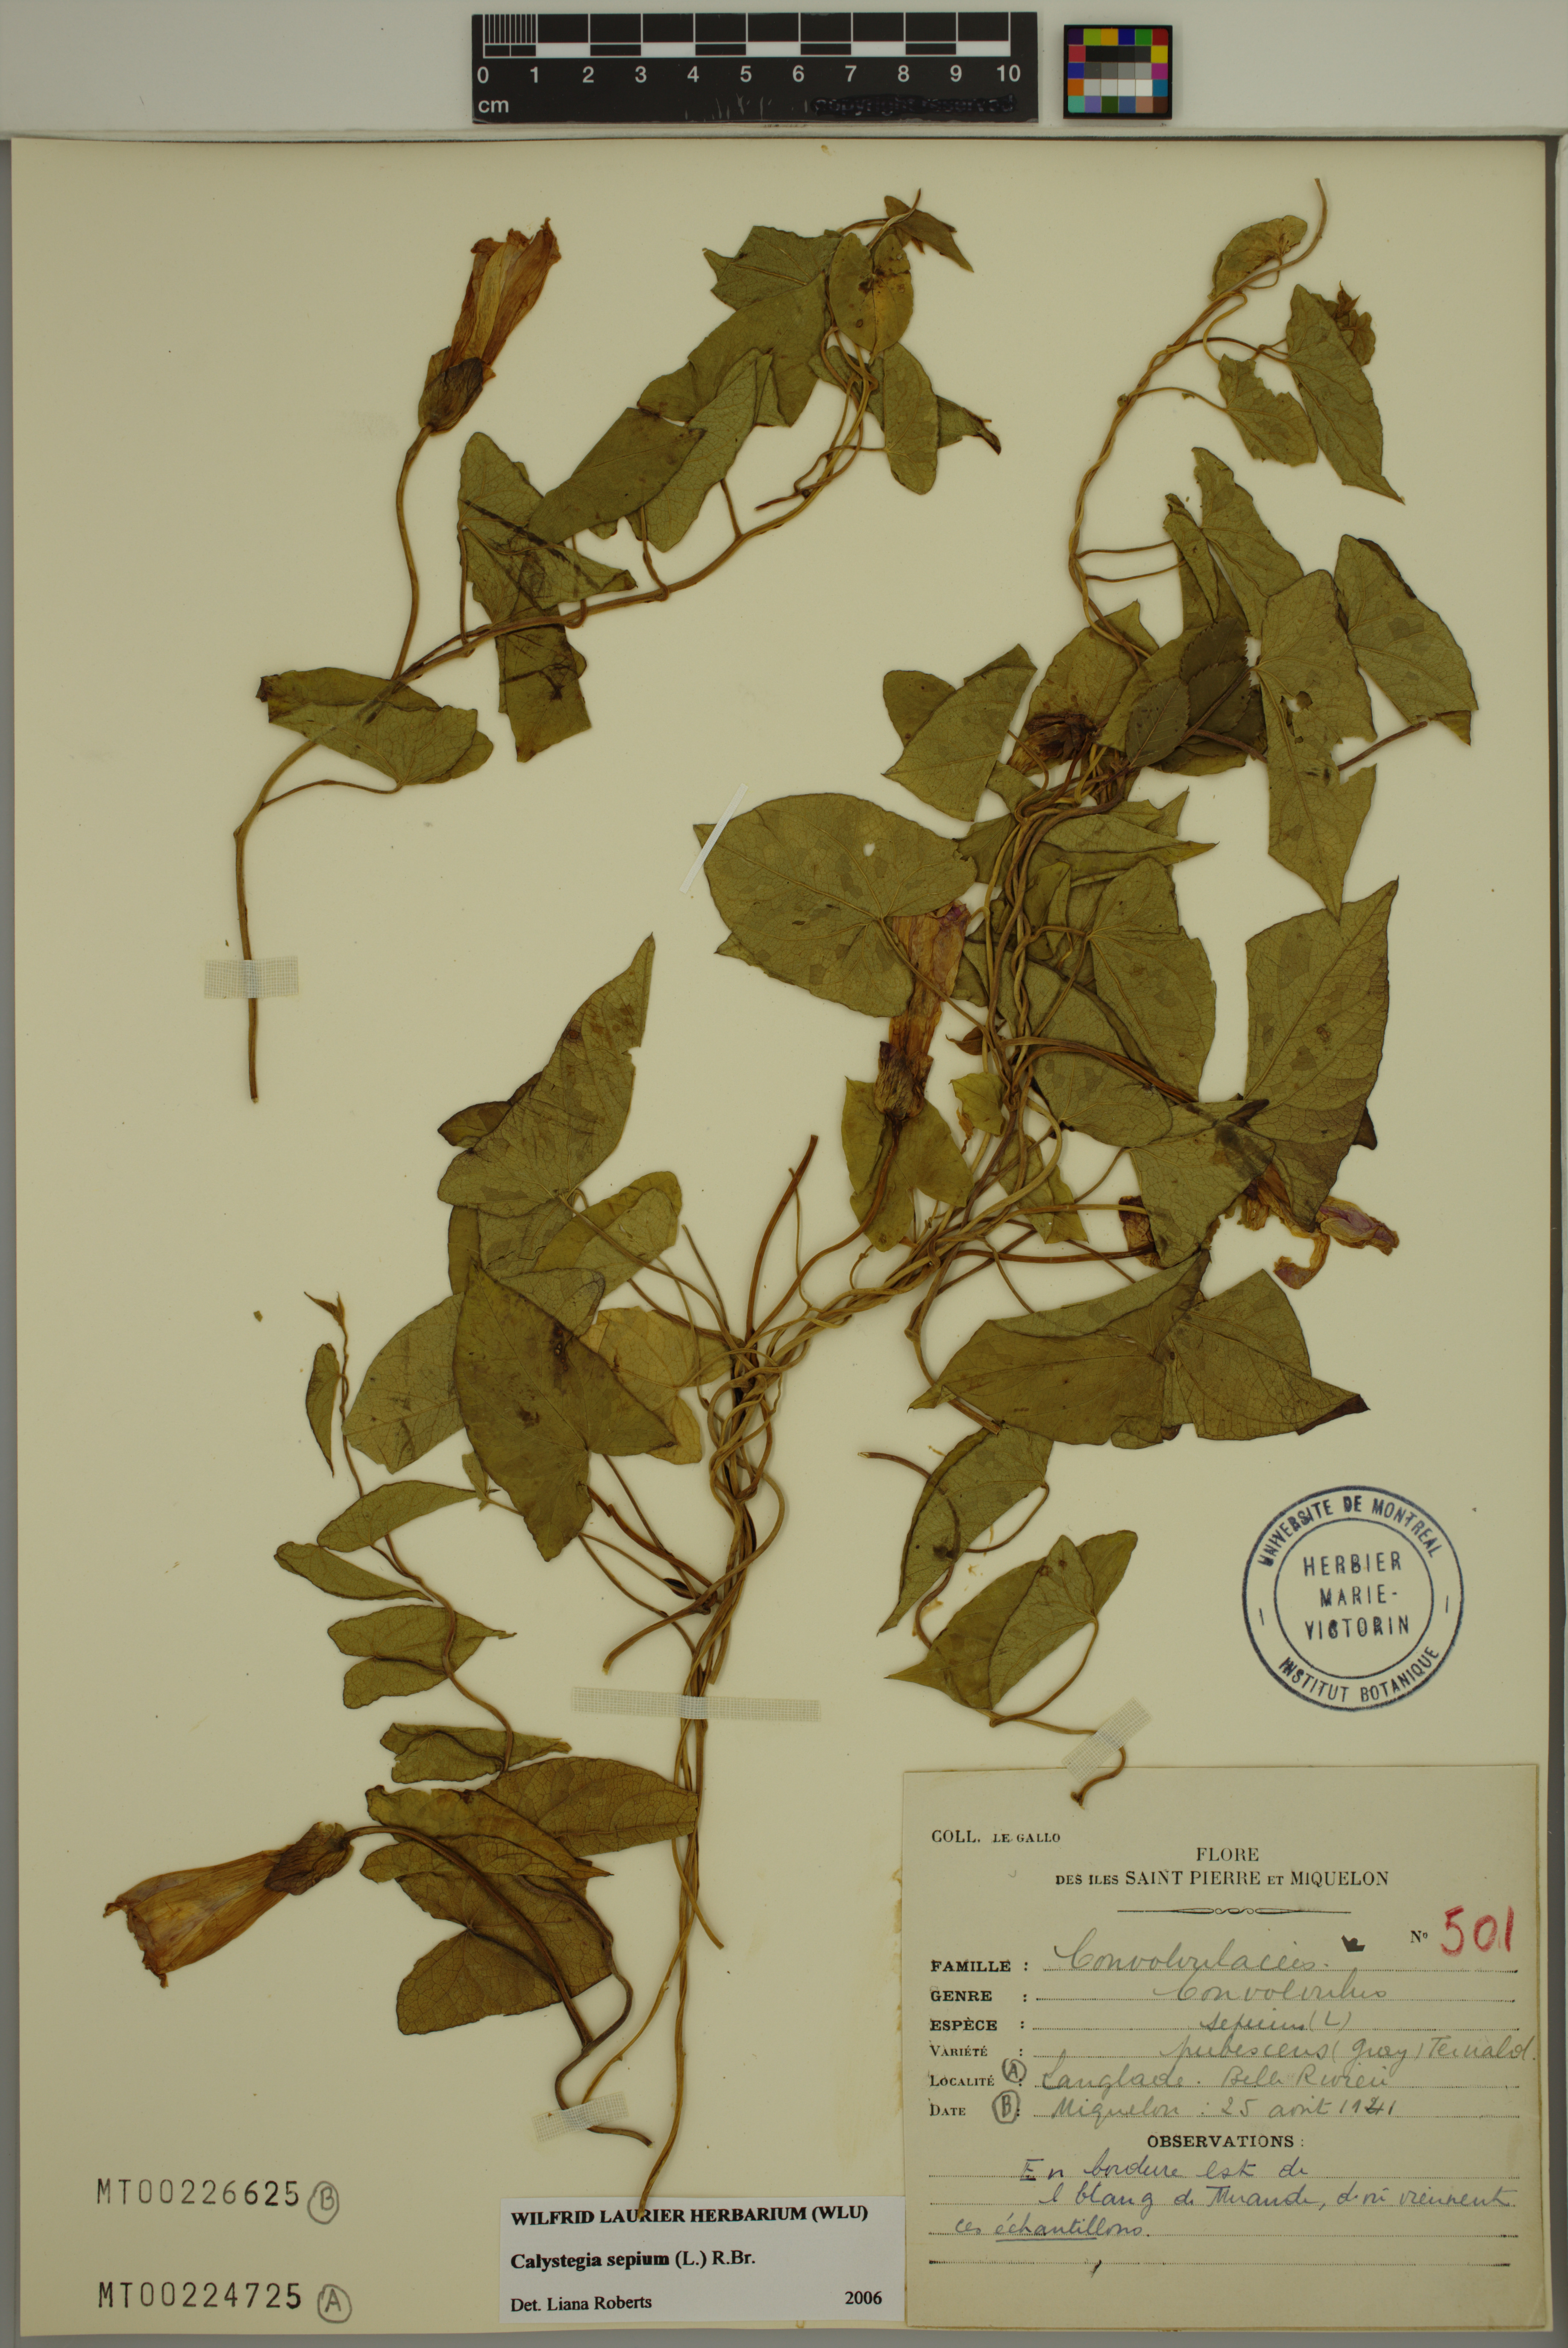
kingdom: Plantae
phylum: Tracheophyta
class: Magnoliopsida
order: Solanales
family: Convolvulaceae
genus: Calystegia
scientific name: Calystegia sepium
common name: Hedge bindweed
